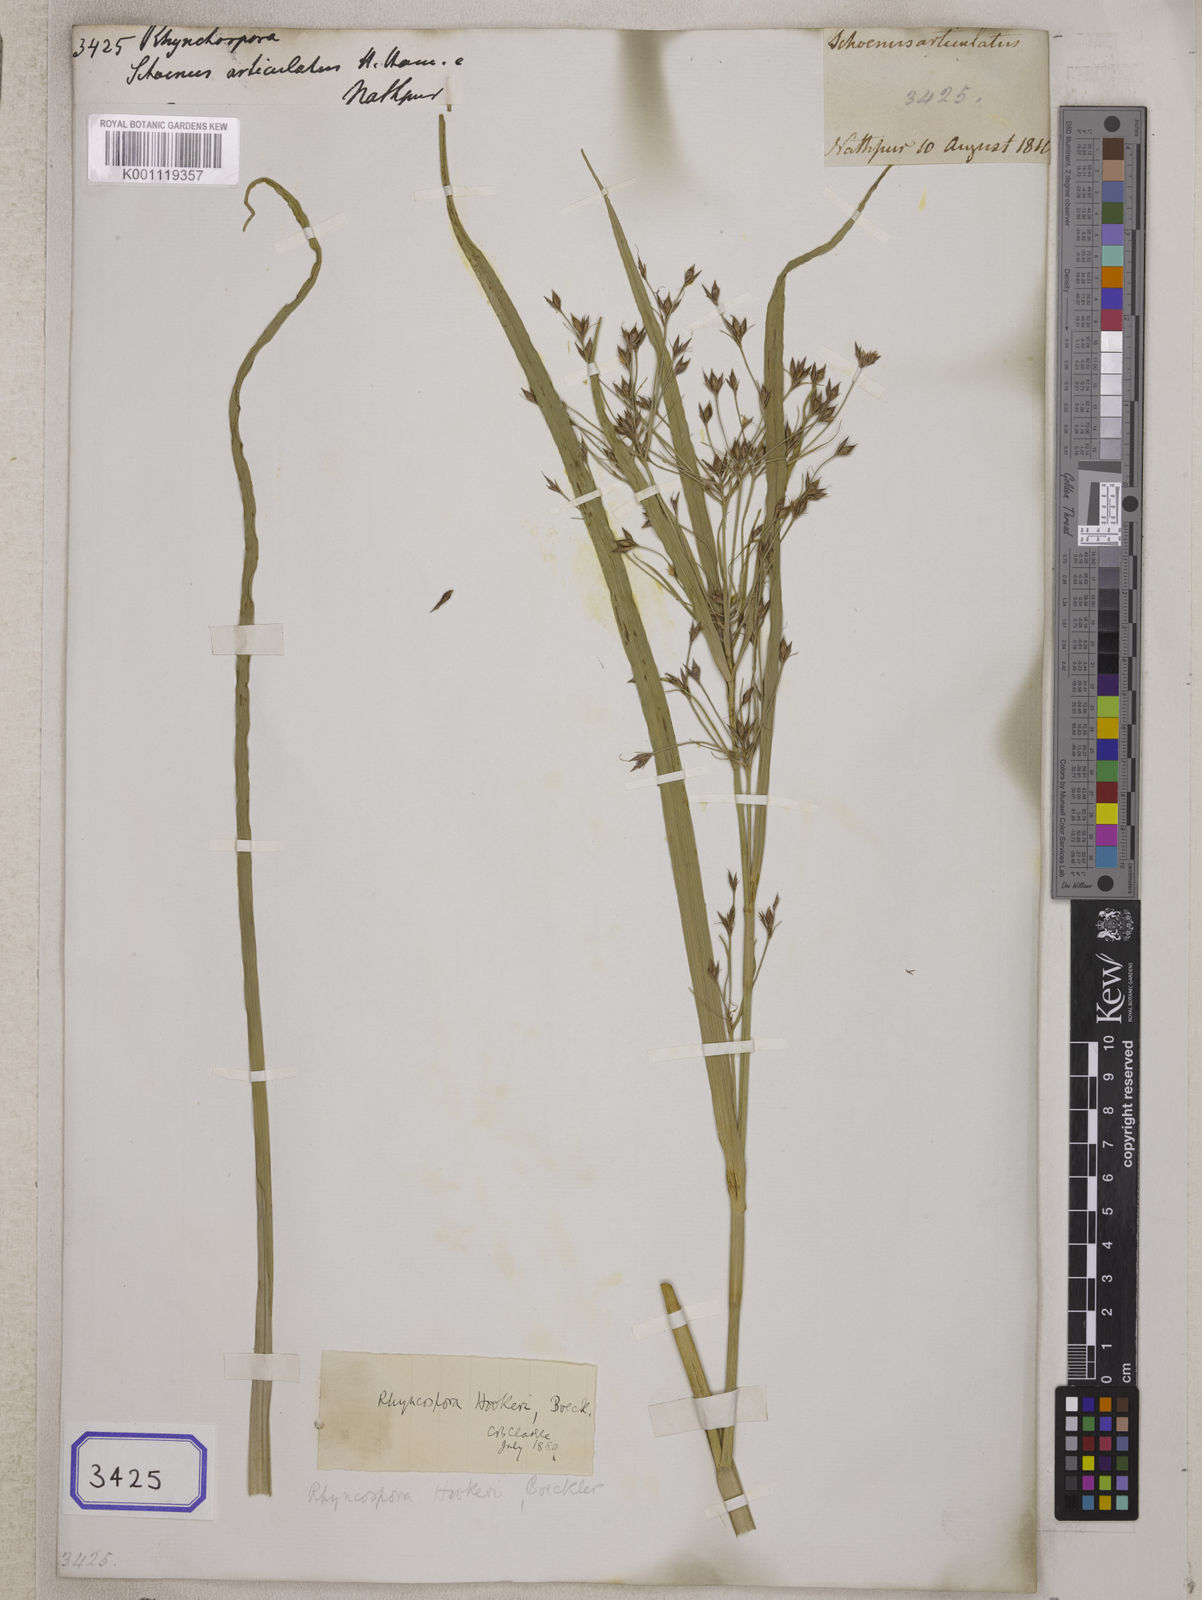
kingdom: Plantae
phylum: Tracheophyta
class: Liliopsida
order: Poales
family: Cyperaceae
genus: Rhynchospora
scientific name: Rhynchospora
